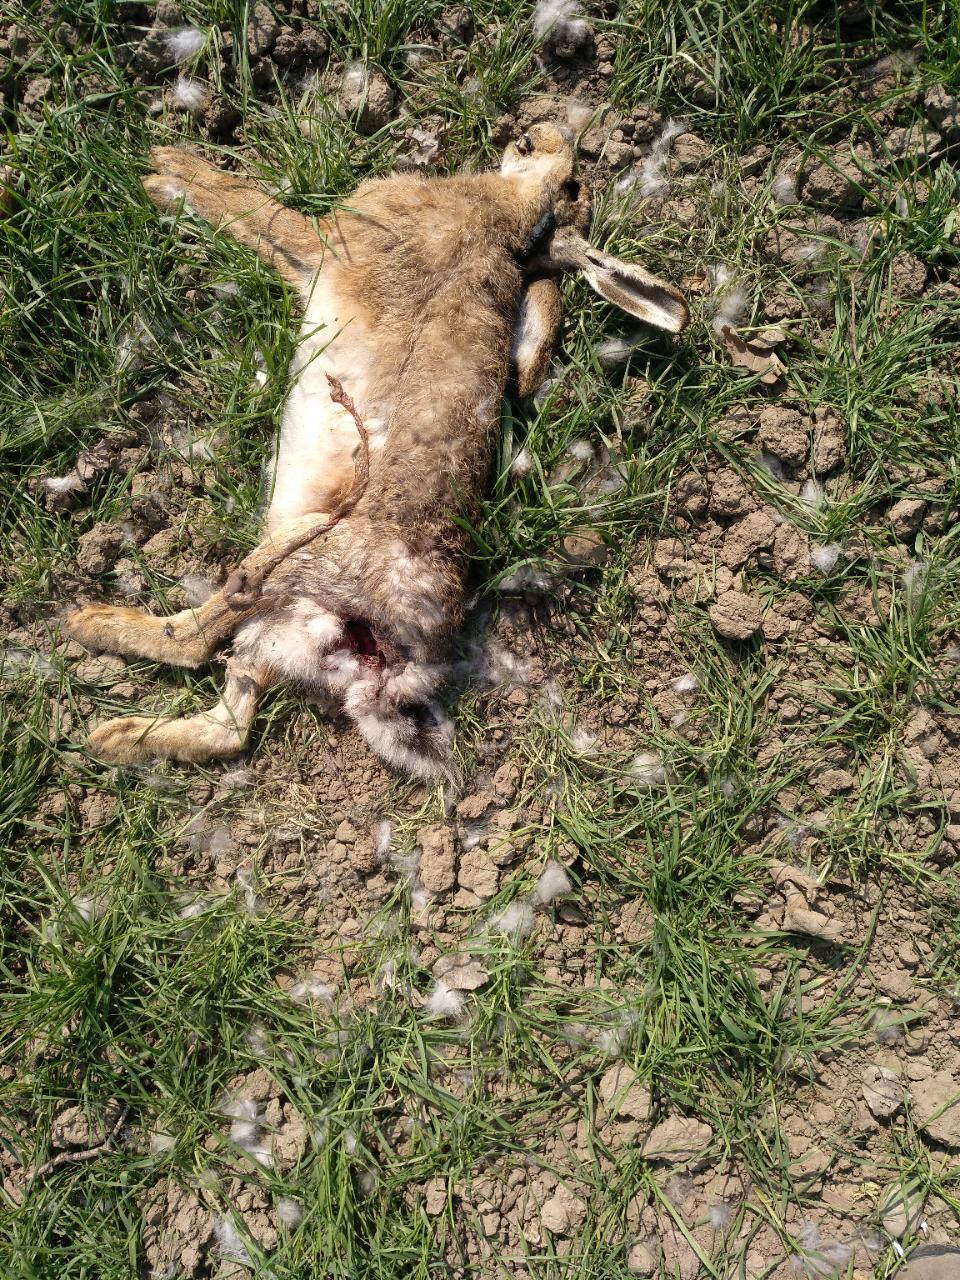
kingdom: Animalia
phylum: Chordata
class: Mammalia
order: Lagomorpha
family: Leporidae
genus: Lepus
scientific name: Lepus europaeus
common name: European hare
